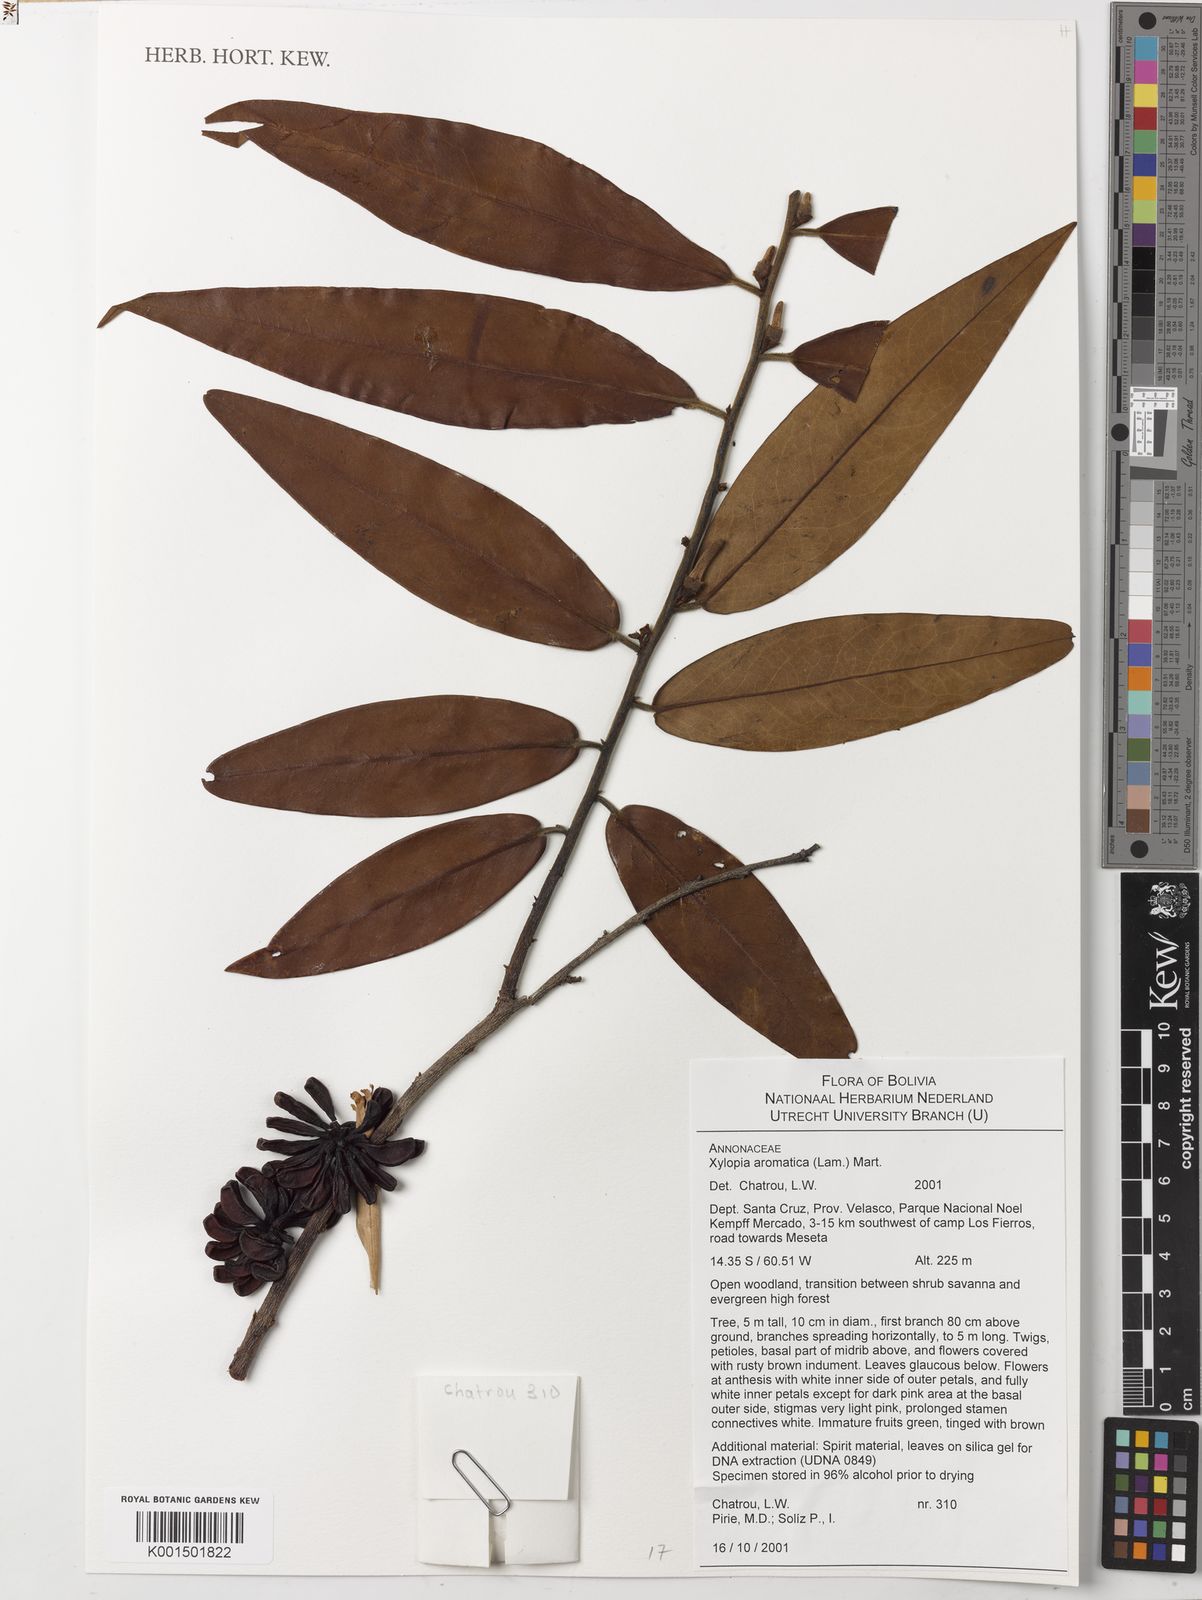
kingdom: Plantae
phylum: Tracheophyta
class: Magnoliopsida
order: Magnoliales
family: Annonaceae
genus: Xylopia
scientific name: Xylopia aromatica
